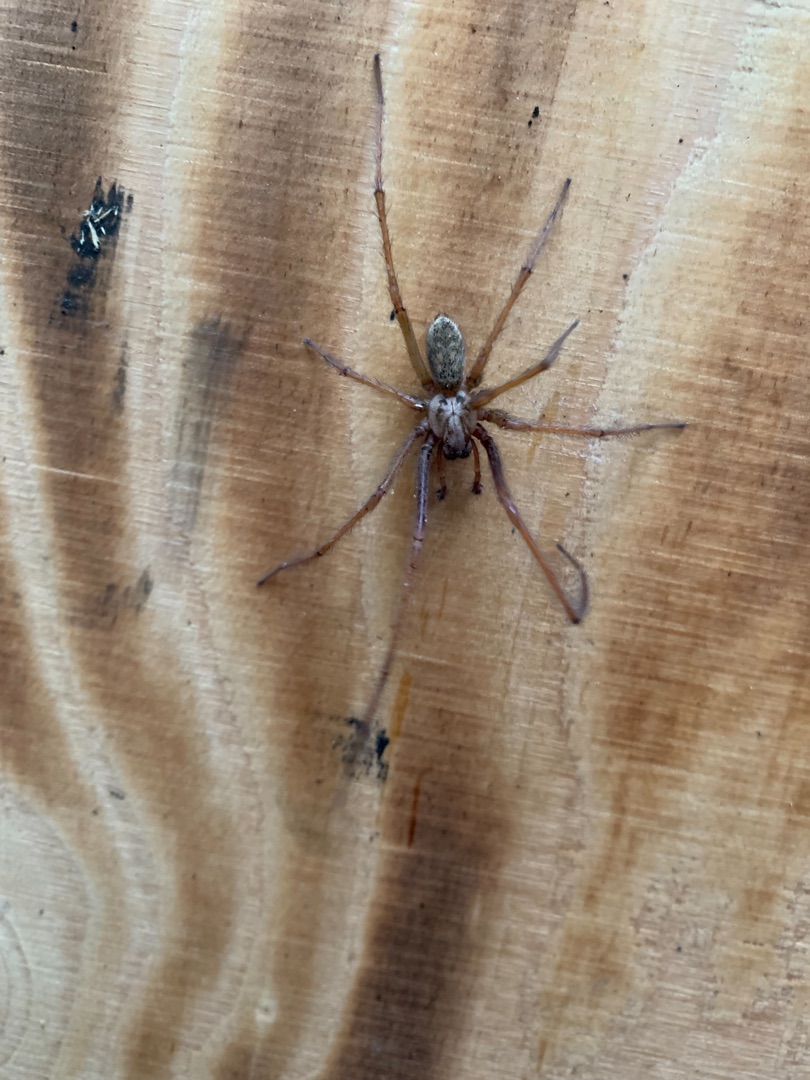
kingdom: Animalia
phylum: Arthropoda
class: Arachnida
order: Araneae
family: Agelenidae
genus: Eratigena
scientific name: Eratigena atrica
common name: Stor husedderkop
